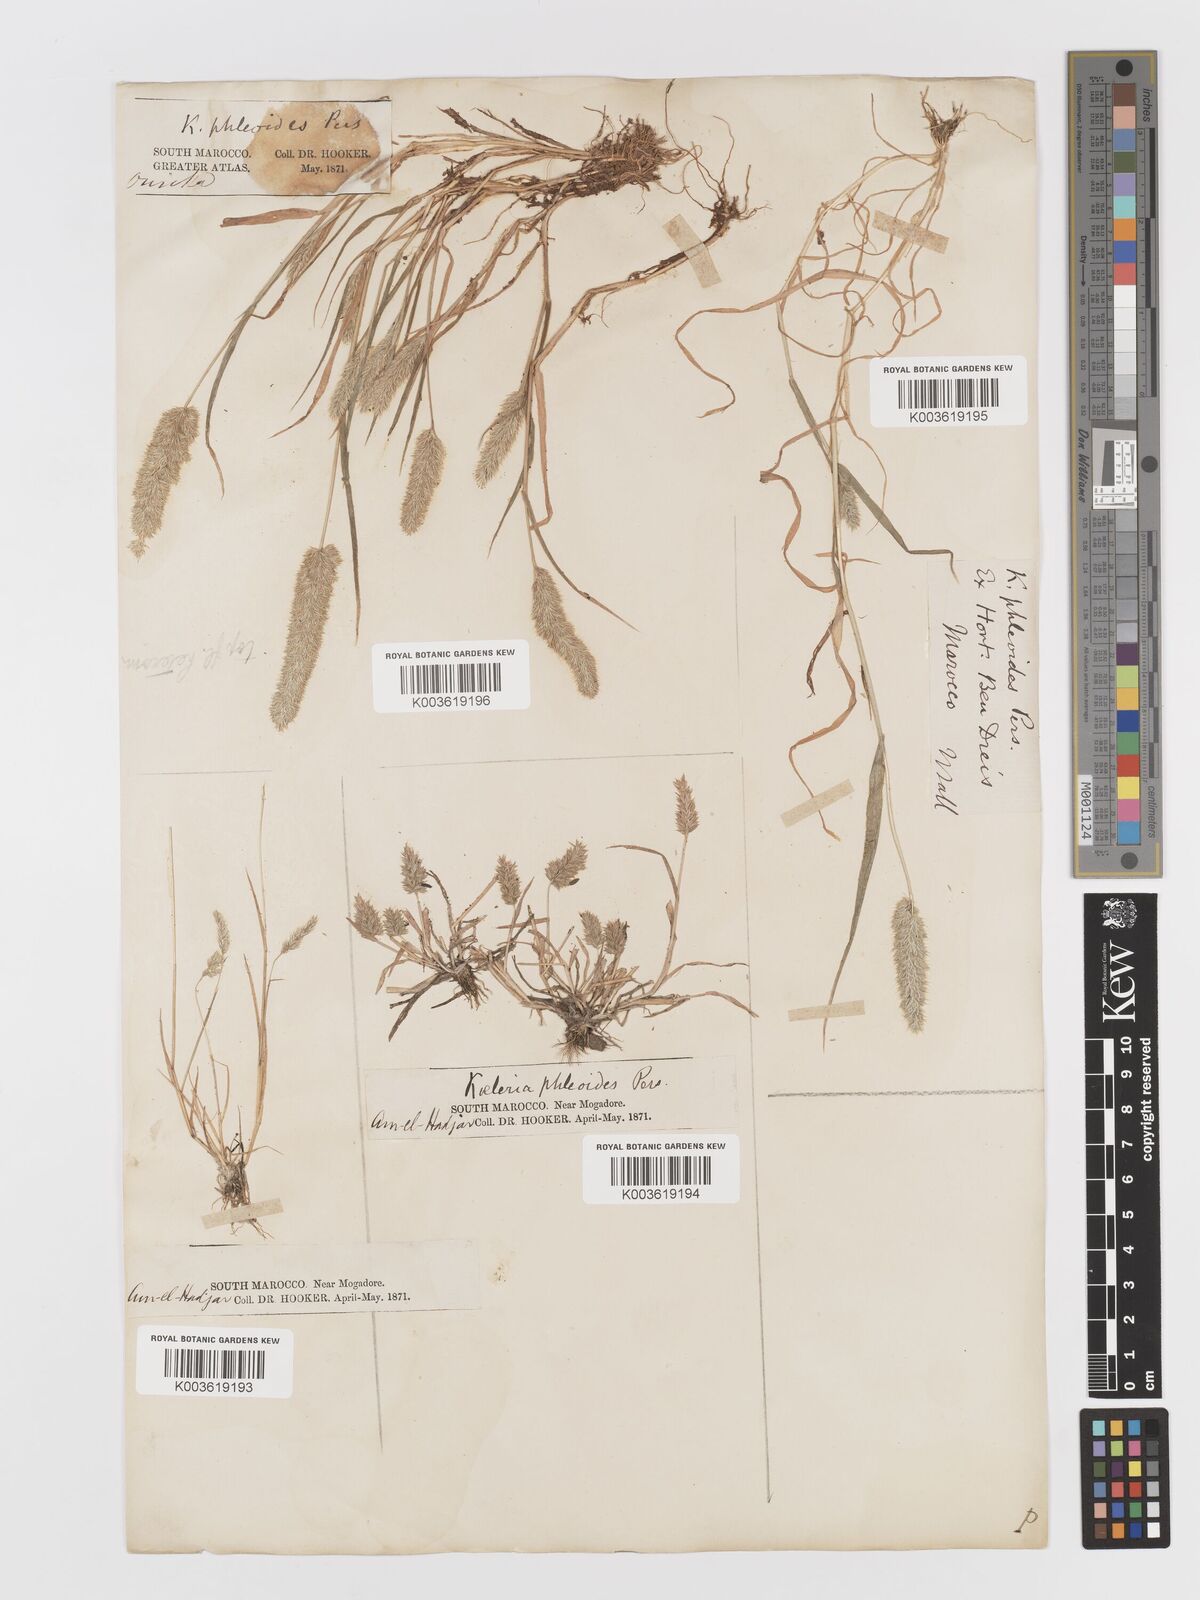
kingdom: Plantae
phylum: Tracheophyta
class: Liliopsida
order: Poales
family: Poaceae
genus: Rostraria
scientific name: Rostraria cristata
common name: Mediterranean hair-grass
